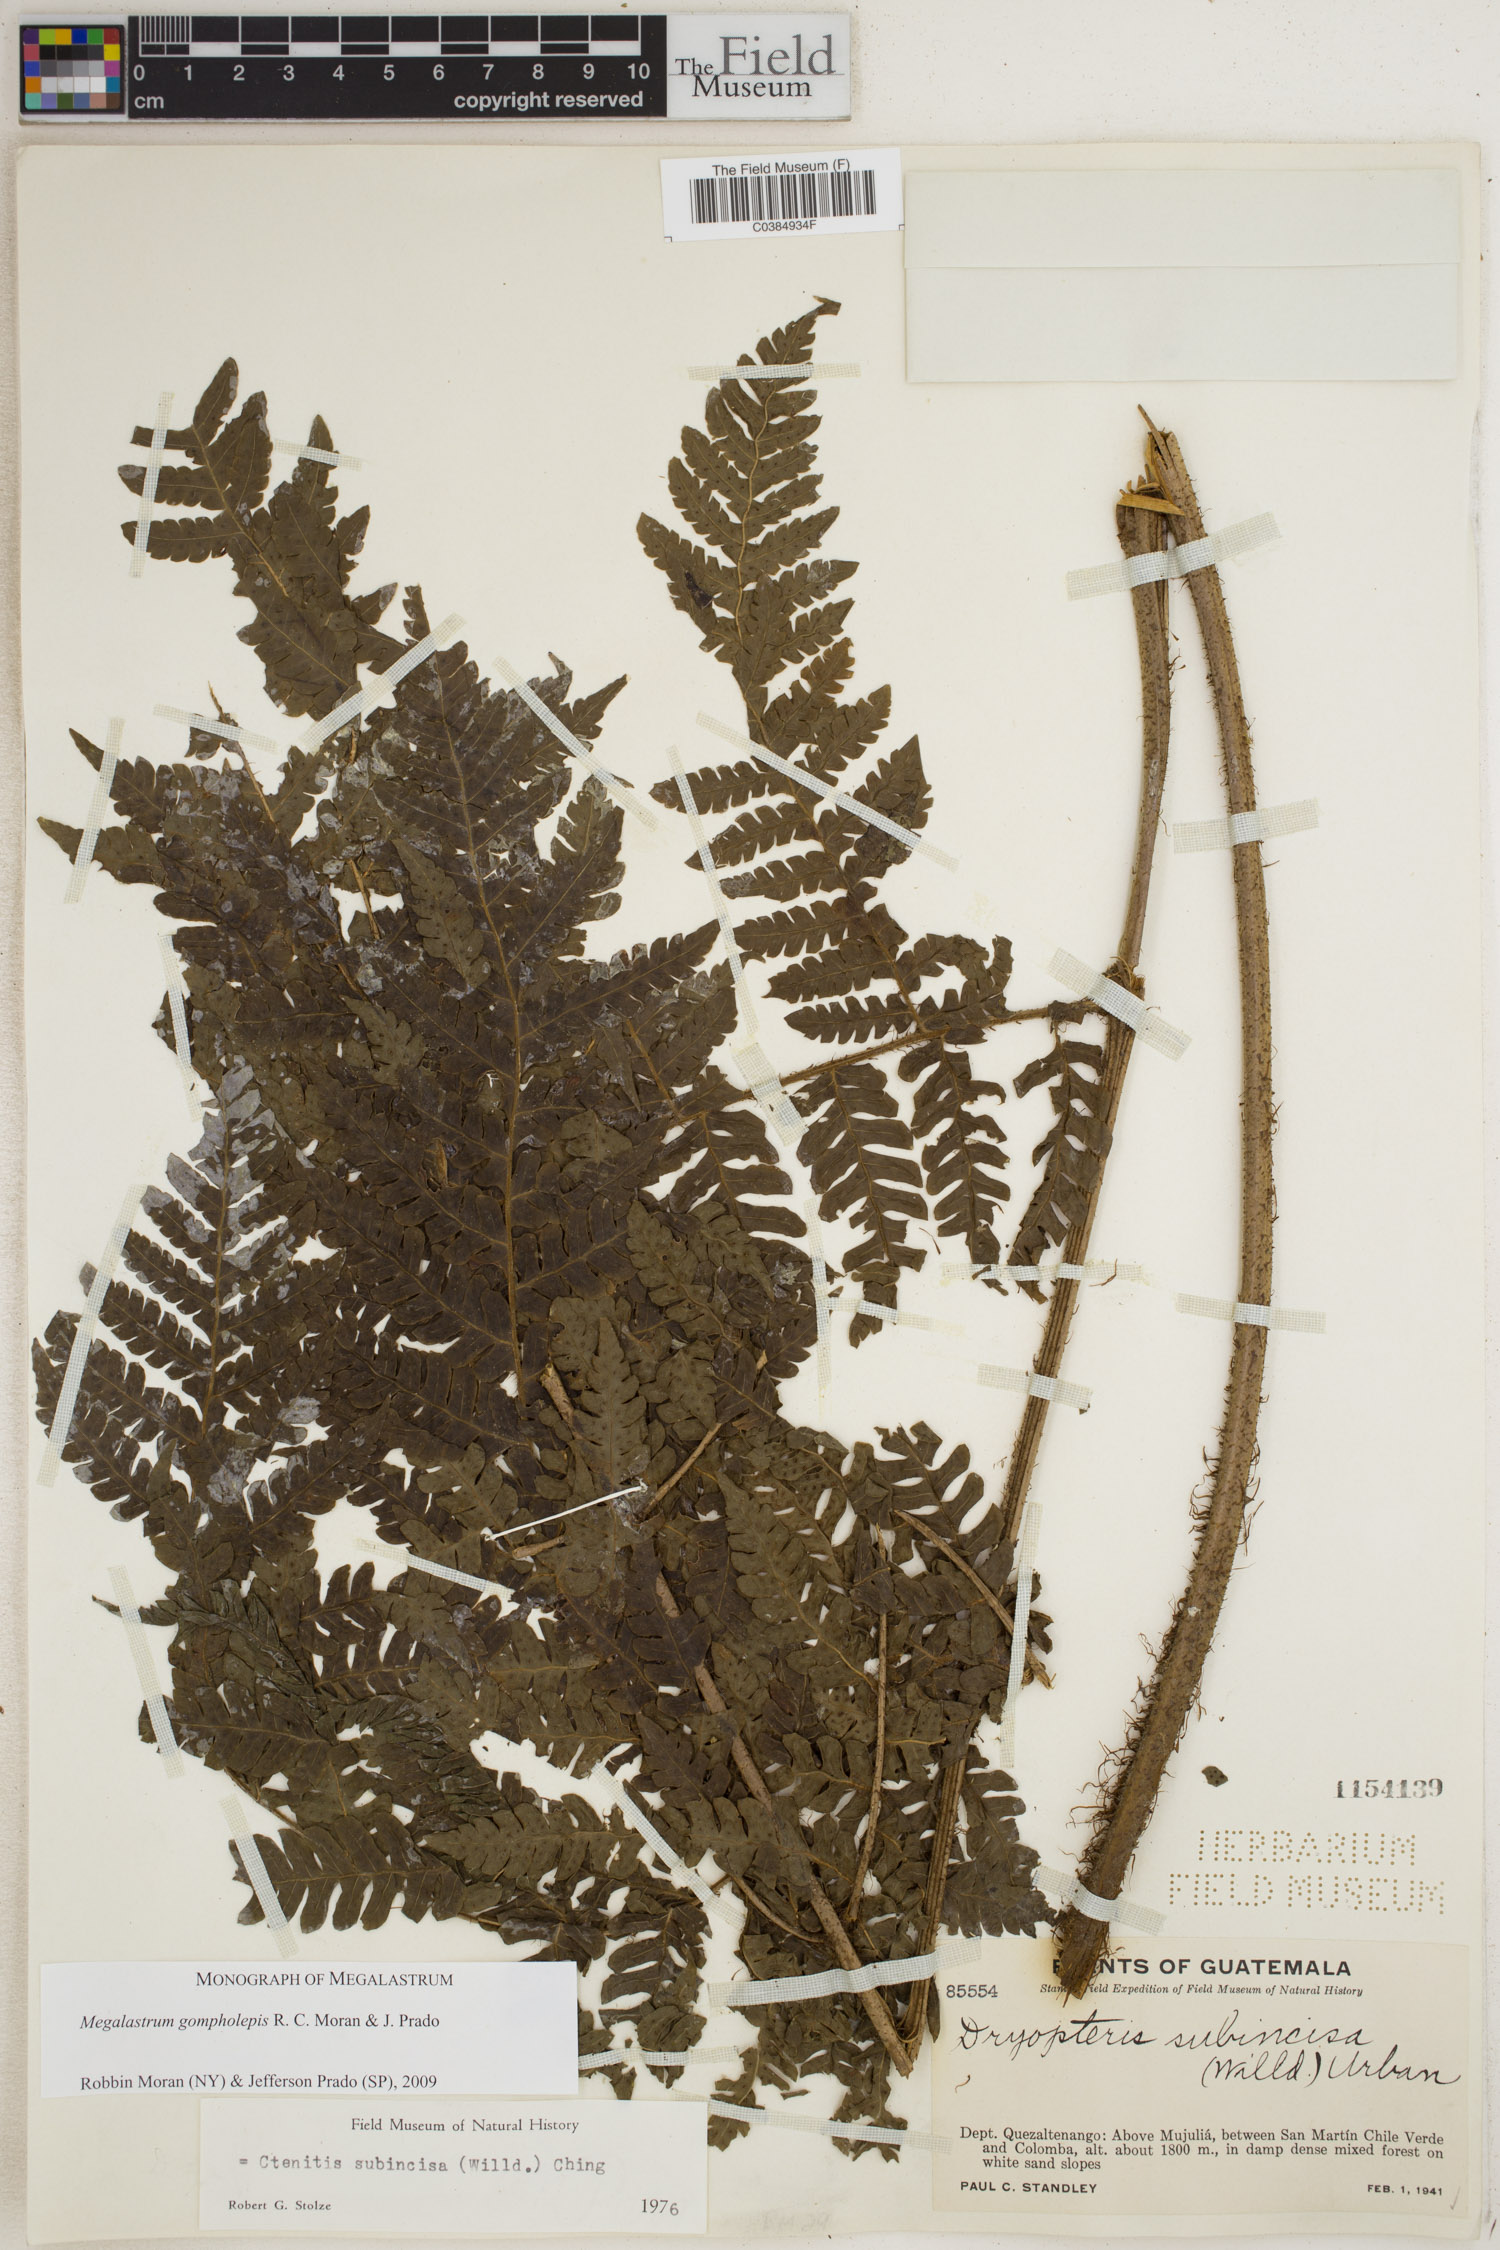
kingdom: Plantae
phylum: Tracheophyta
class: Polypodiopsida
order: Polypodiales
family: Dryopteridaceae
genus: Megalastrum
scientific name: Megalastrum gompholepis
